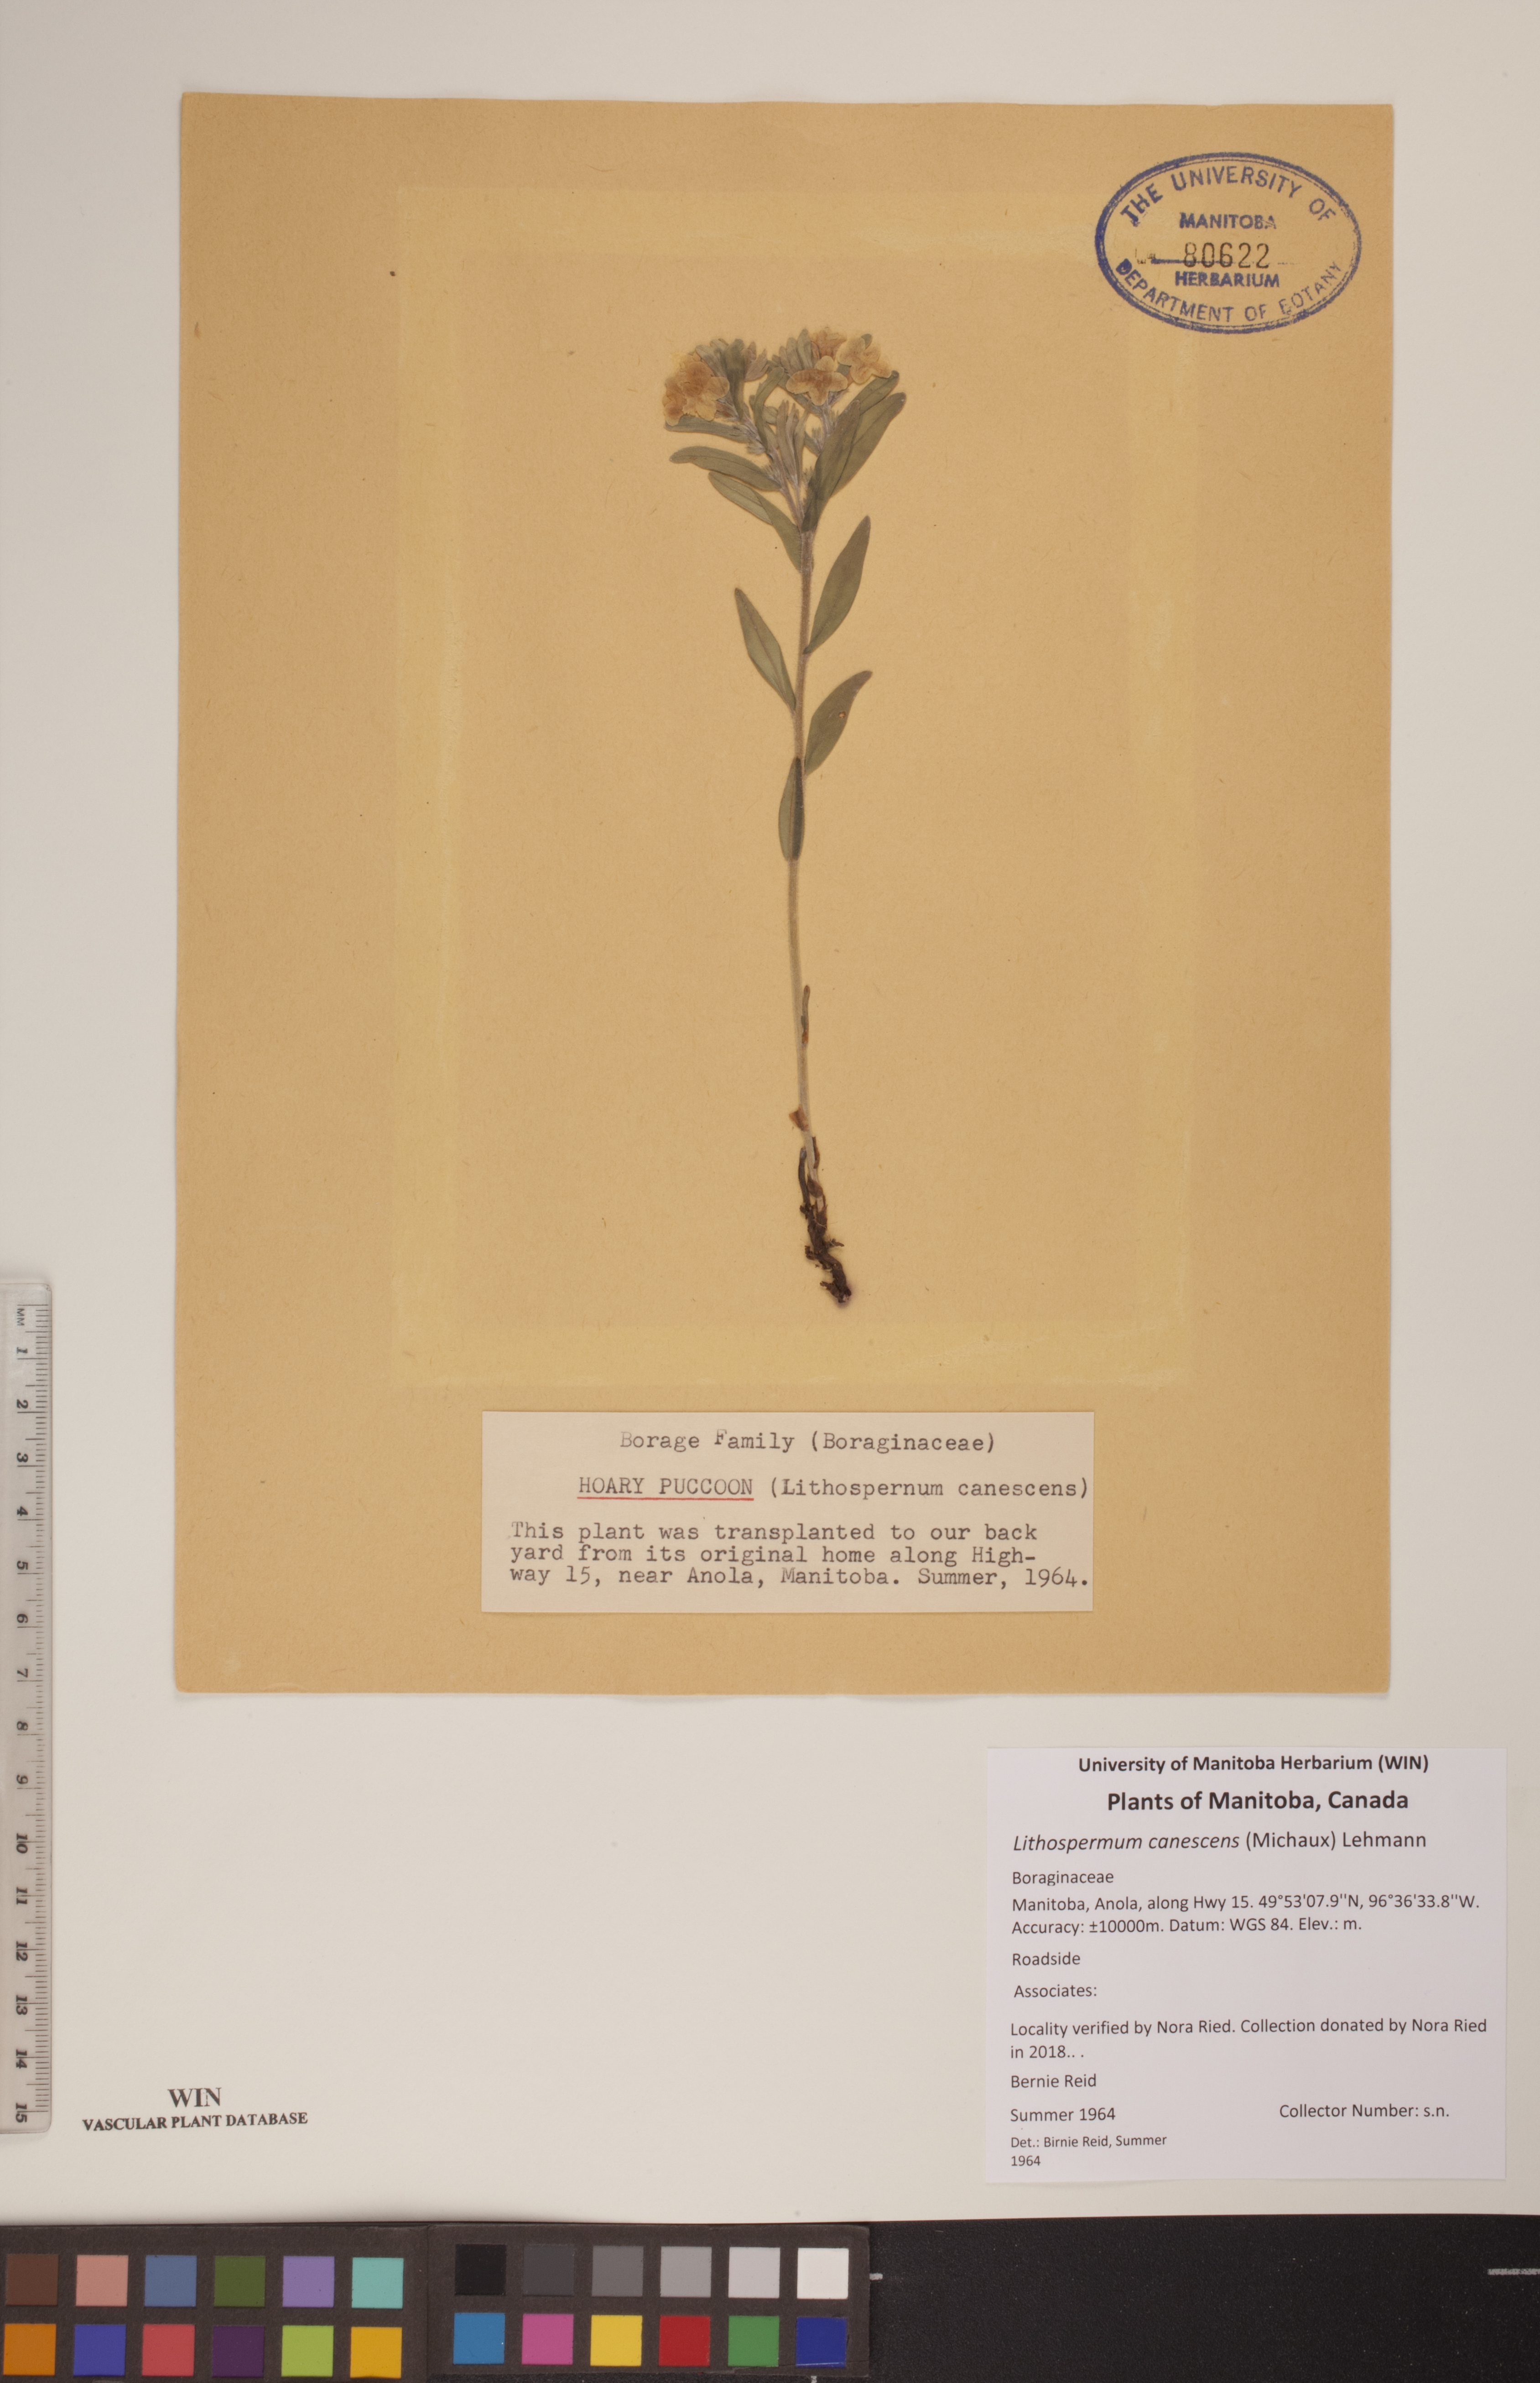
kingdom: Plantae
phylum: Tracheophyta
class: Magnoliopsida
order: Boraginales
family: Boraginaceae
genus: Lithospermum
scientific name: Lithospermum canescens
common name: Hoary puccoon
